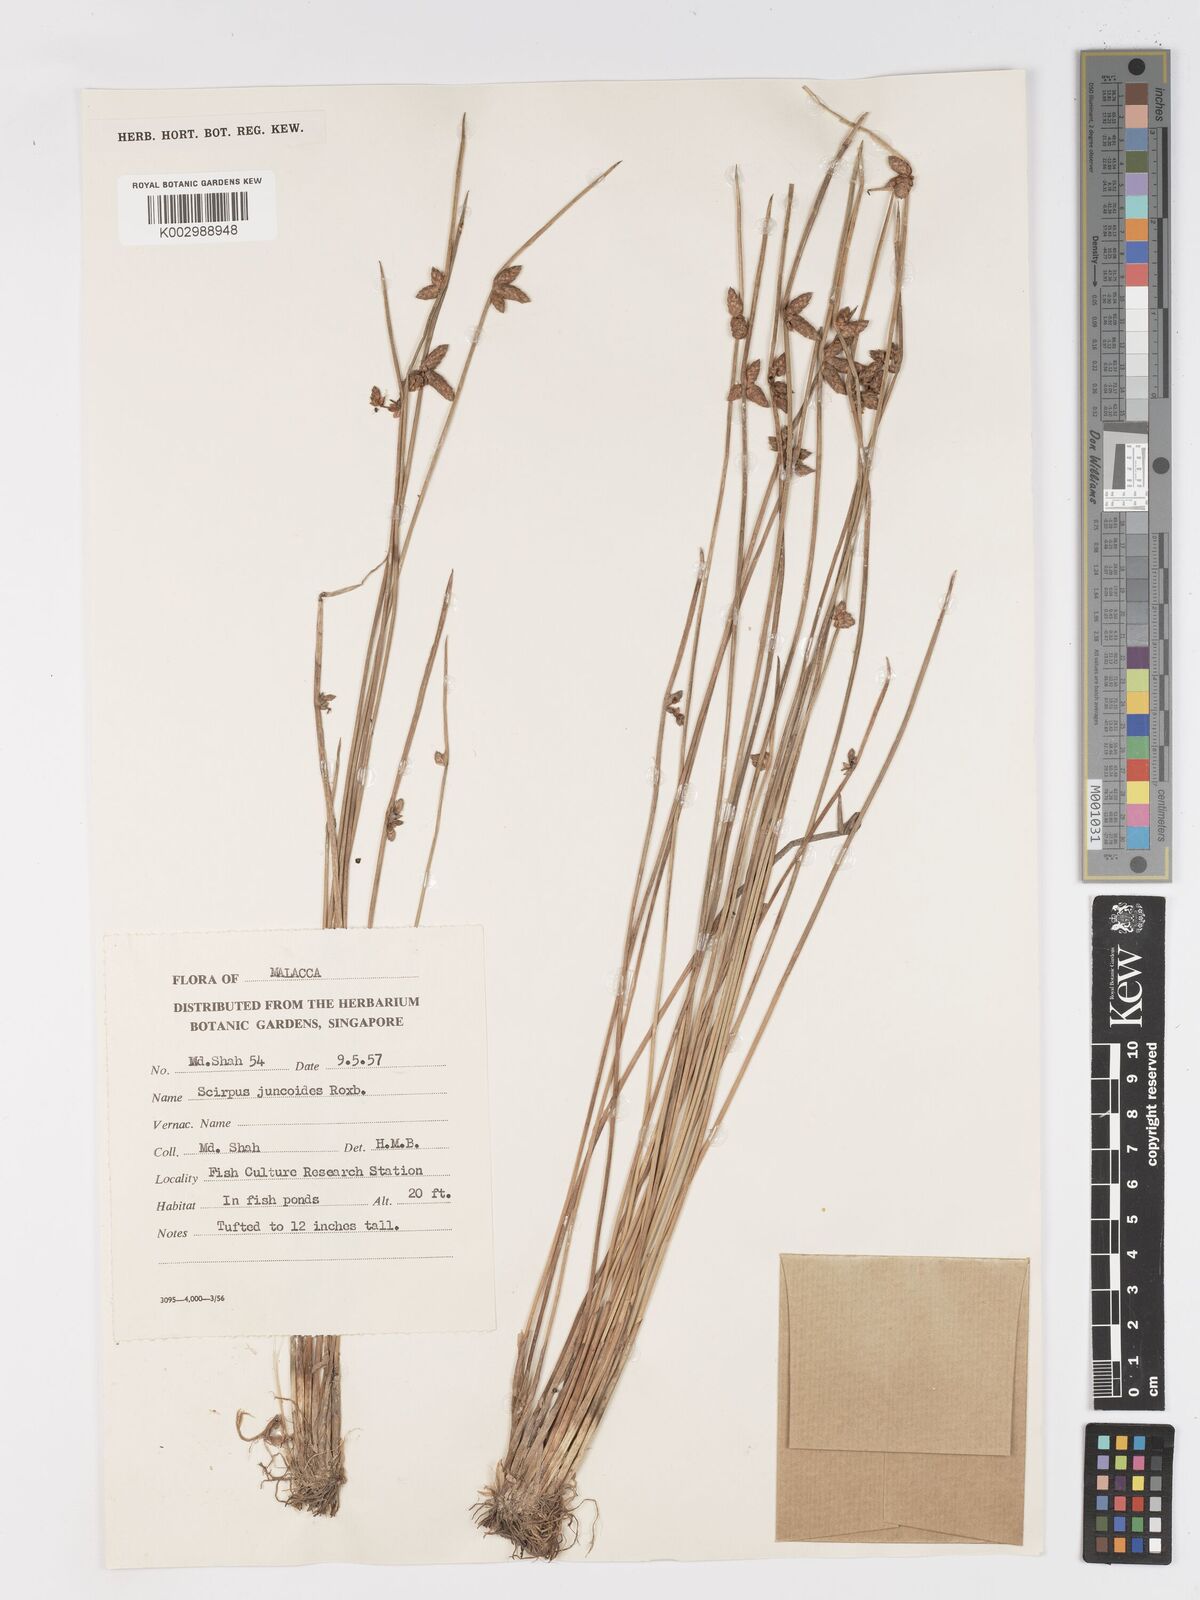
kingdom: Plantae
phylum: Tracheophyta
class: Liliopsida
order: Poales
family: Cyperaceae
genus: Schoenoplectiella
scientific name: Schoenoplectiella juncoides
